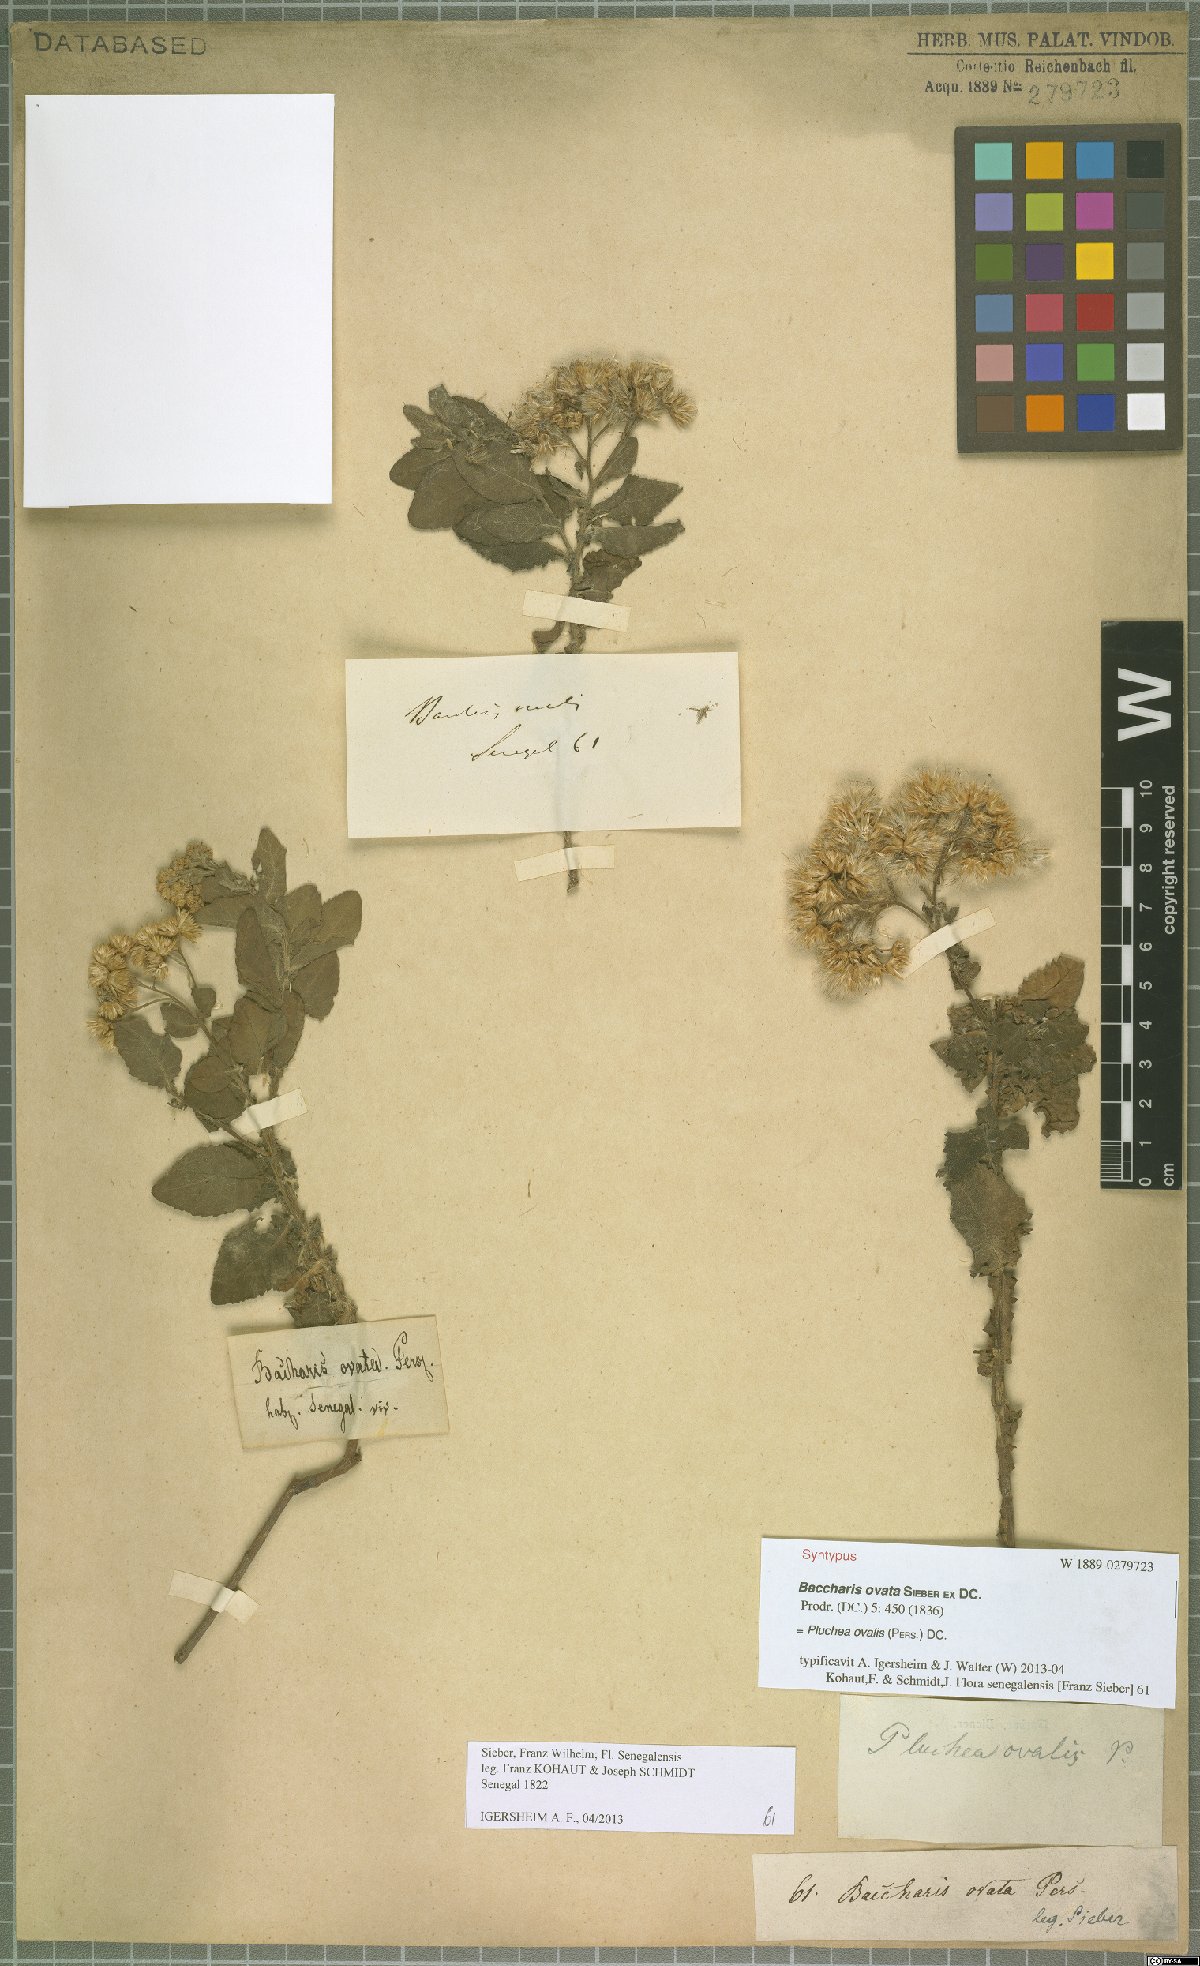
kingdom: Plantae
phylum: Tracheophyta
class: Magnoliopsida
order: Asterales
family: Asteraceae
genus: Pluchea
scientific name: Pluchea ovalis
